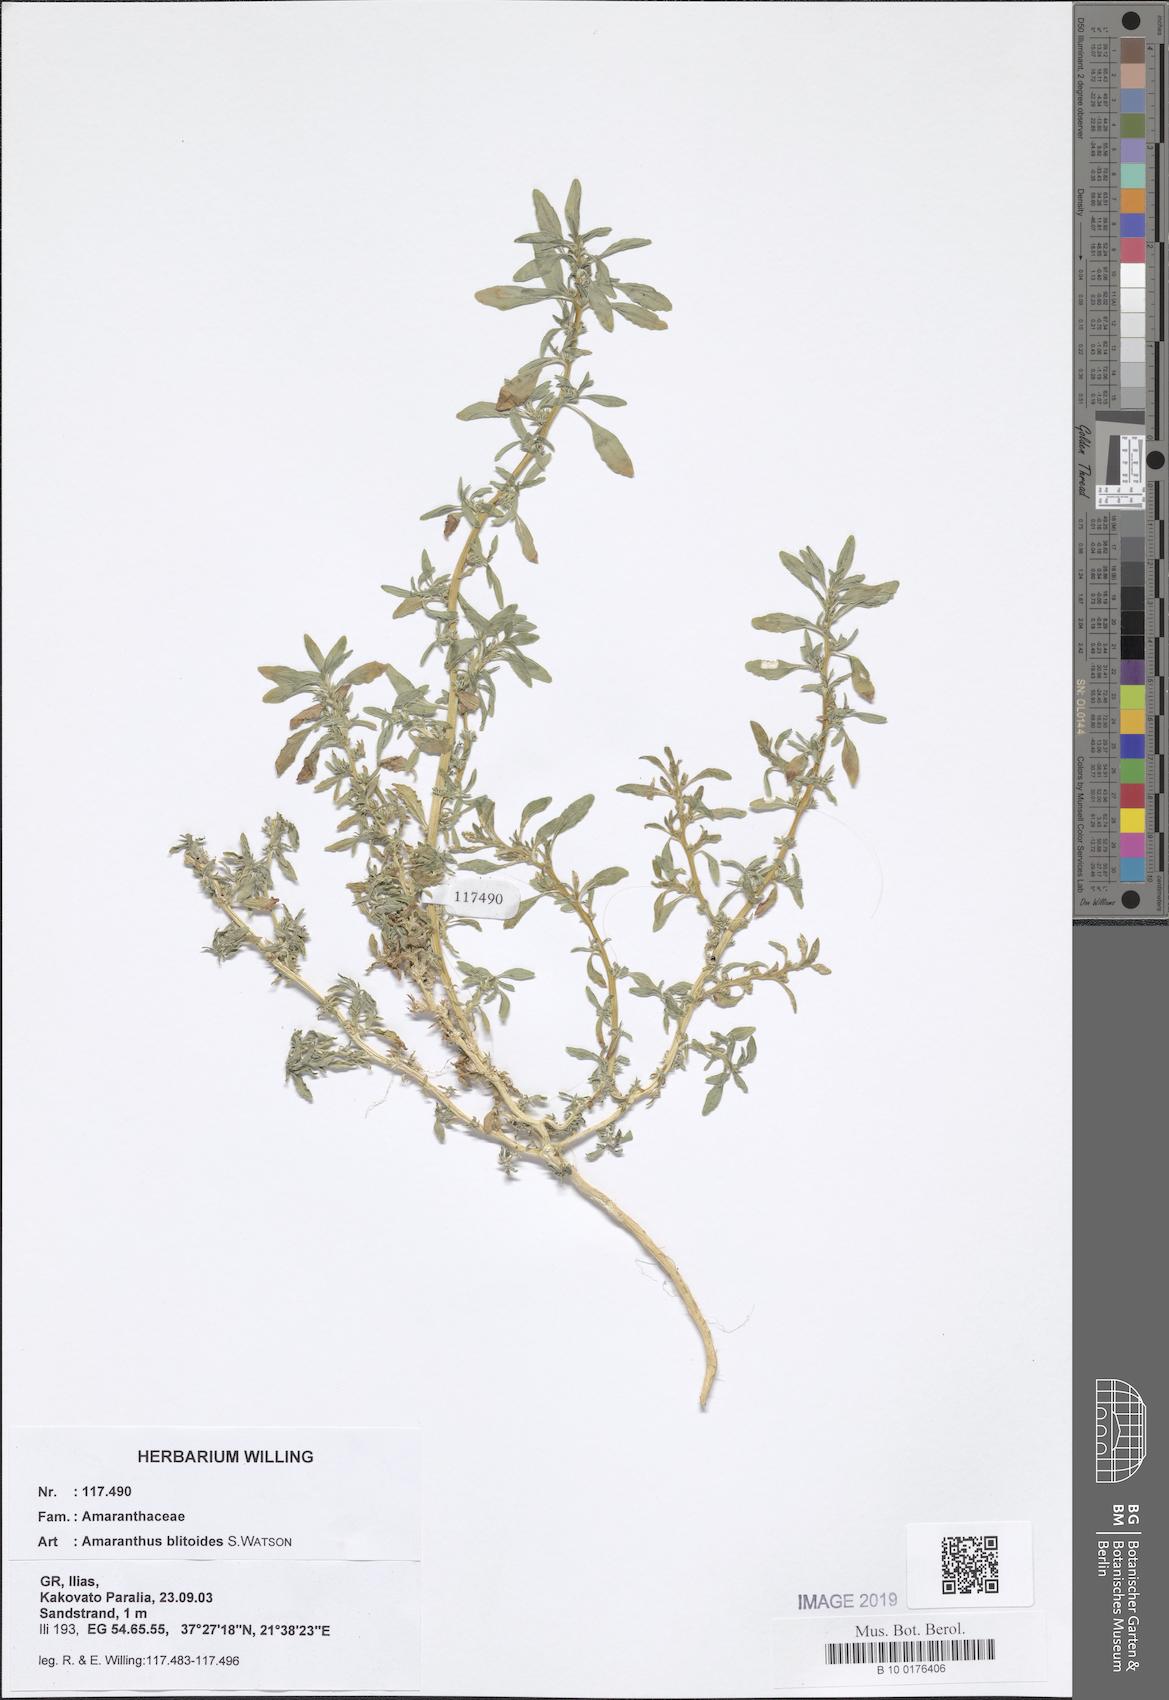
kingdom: Plantae
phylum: Tracheophyta
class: Magnoliopsida
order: Caryophyllales
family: Amaranthaceae
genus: Amaranthus
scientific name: Amaranthus blitoides
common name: Prostrate pigweed
